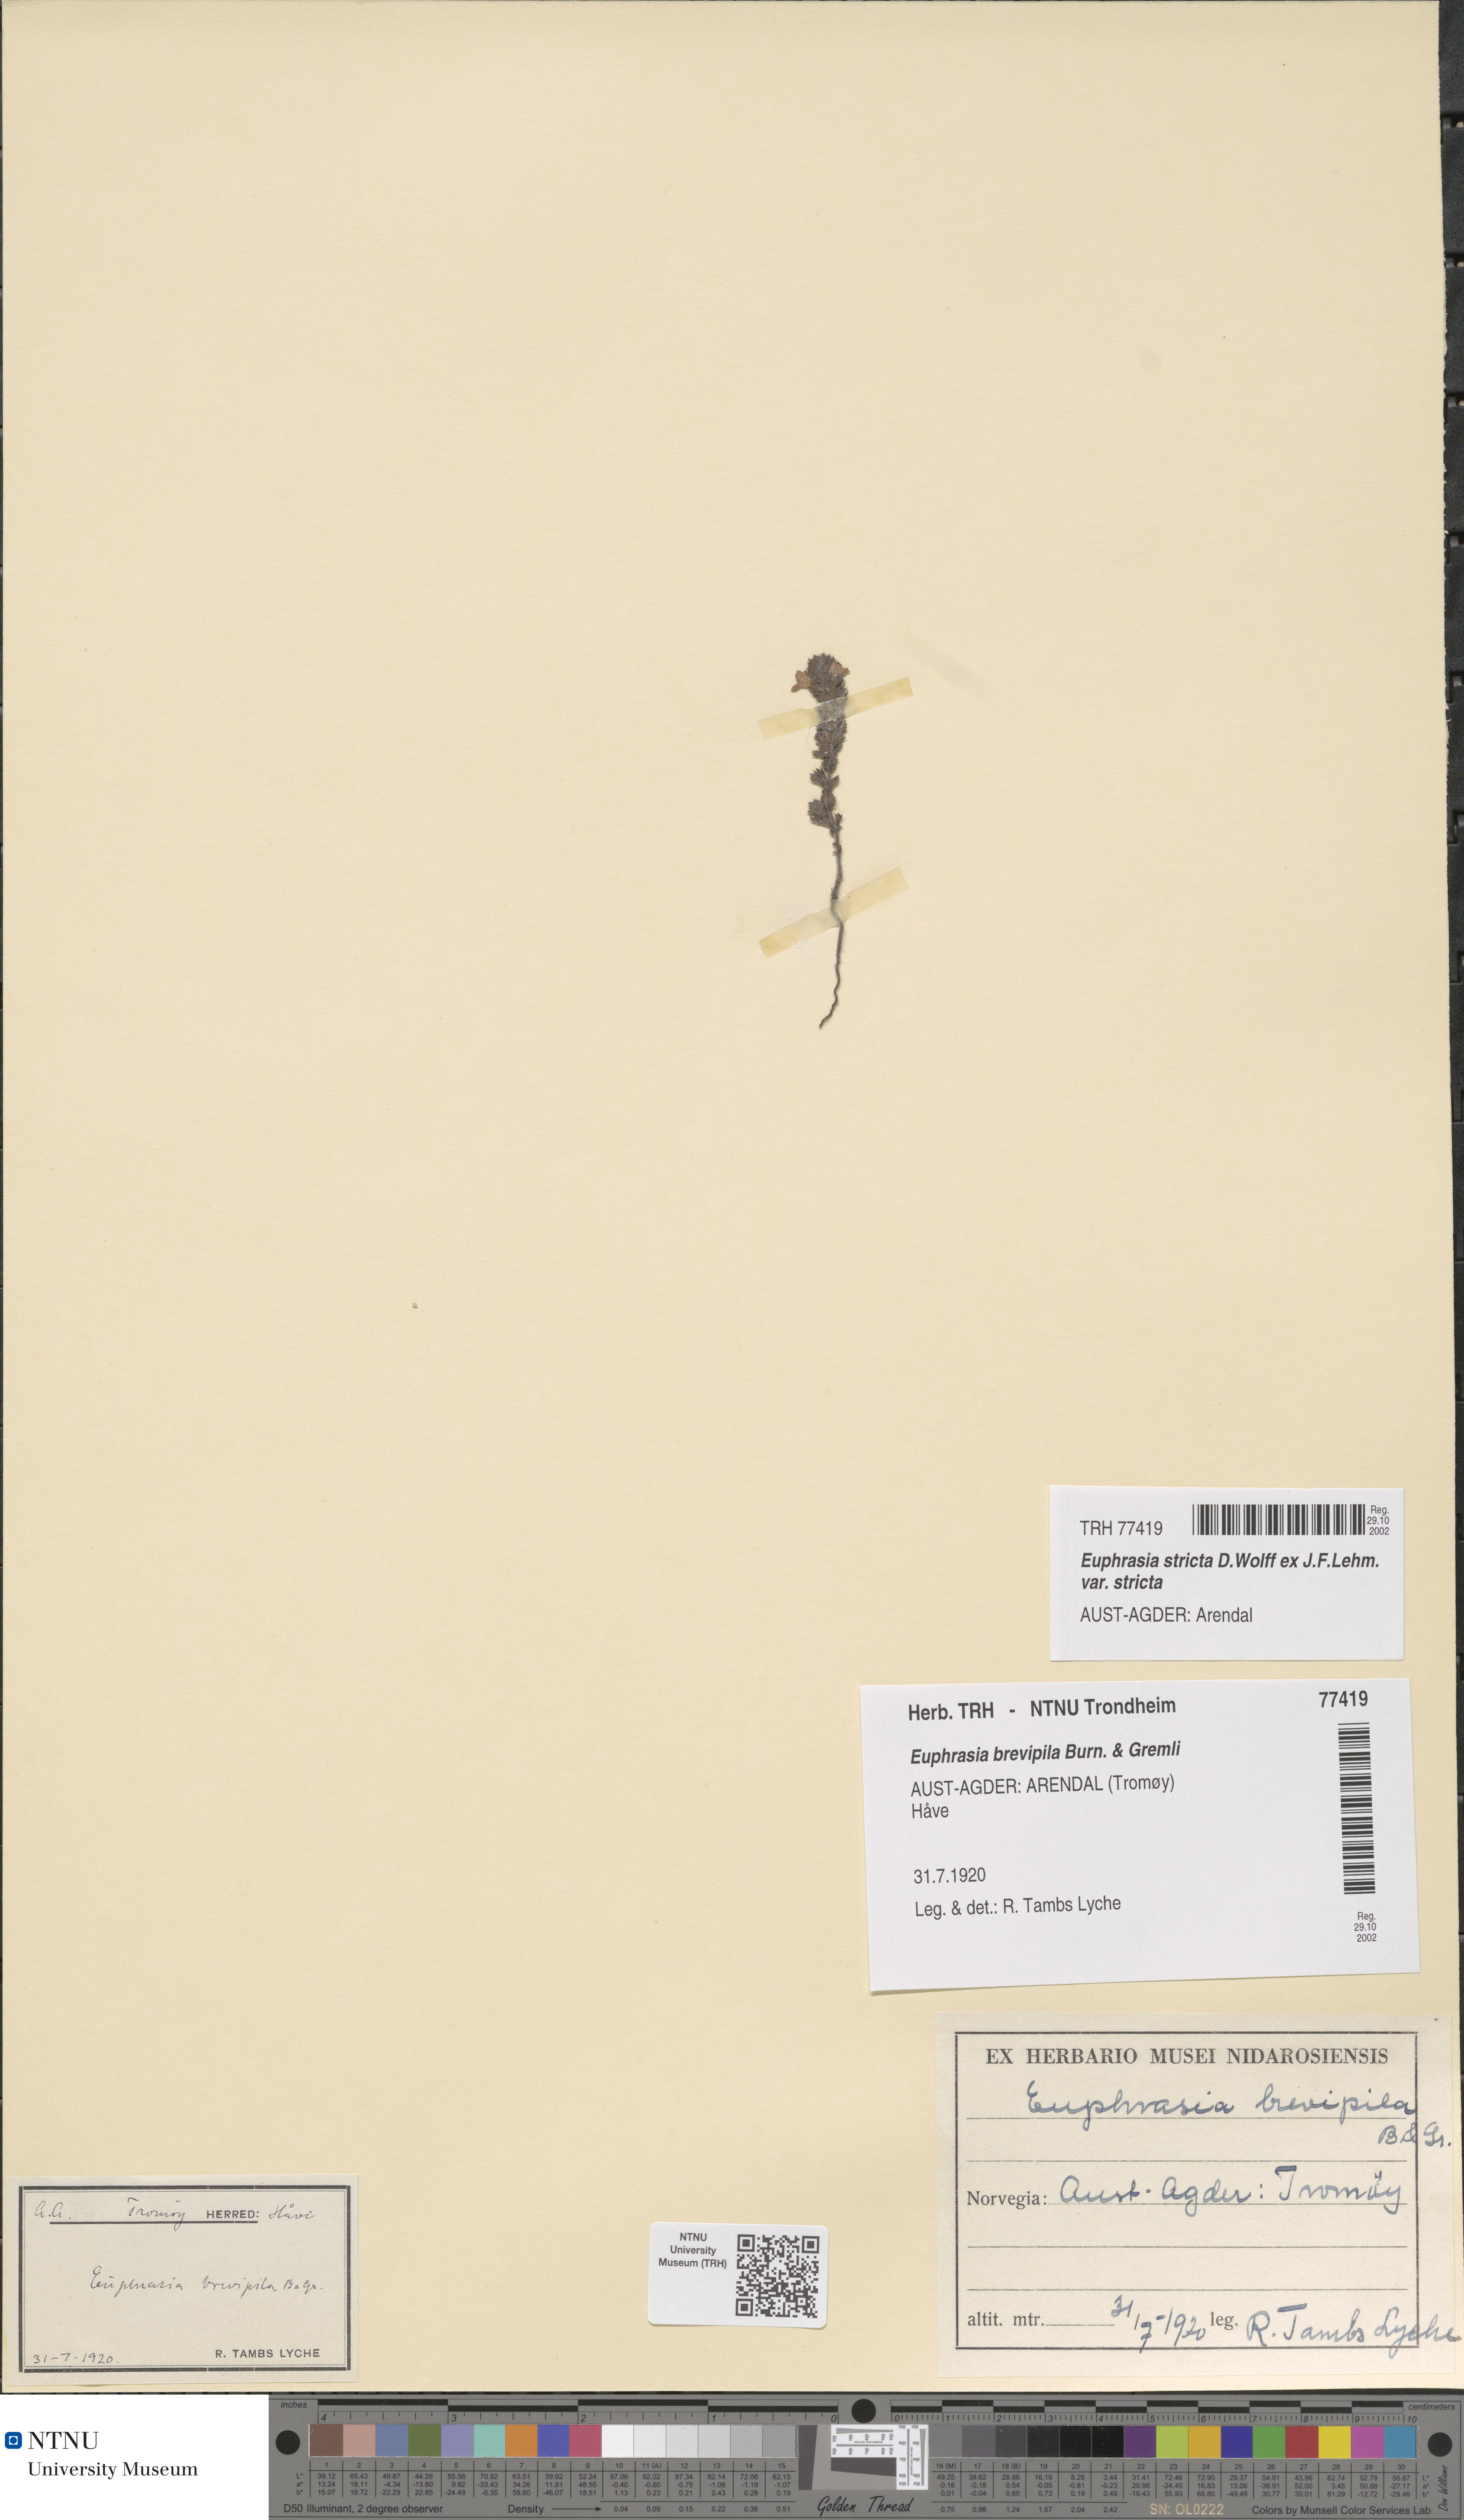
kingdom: Plantae
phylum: Tracheophyta
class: Magnoliopsida
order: Lamiales
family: Orobanchaceae
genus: Euphrasia
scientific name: Euphrasia vernalis
